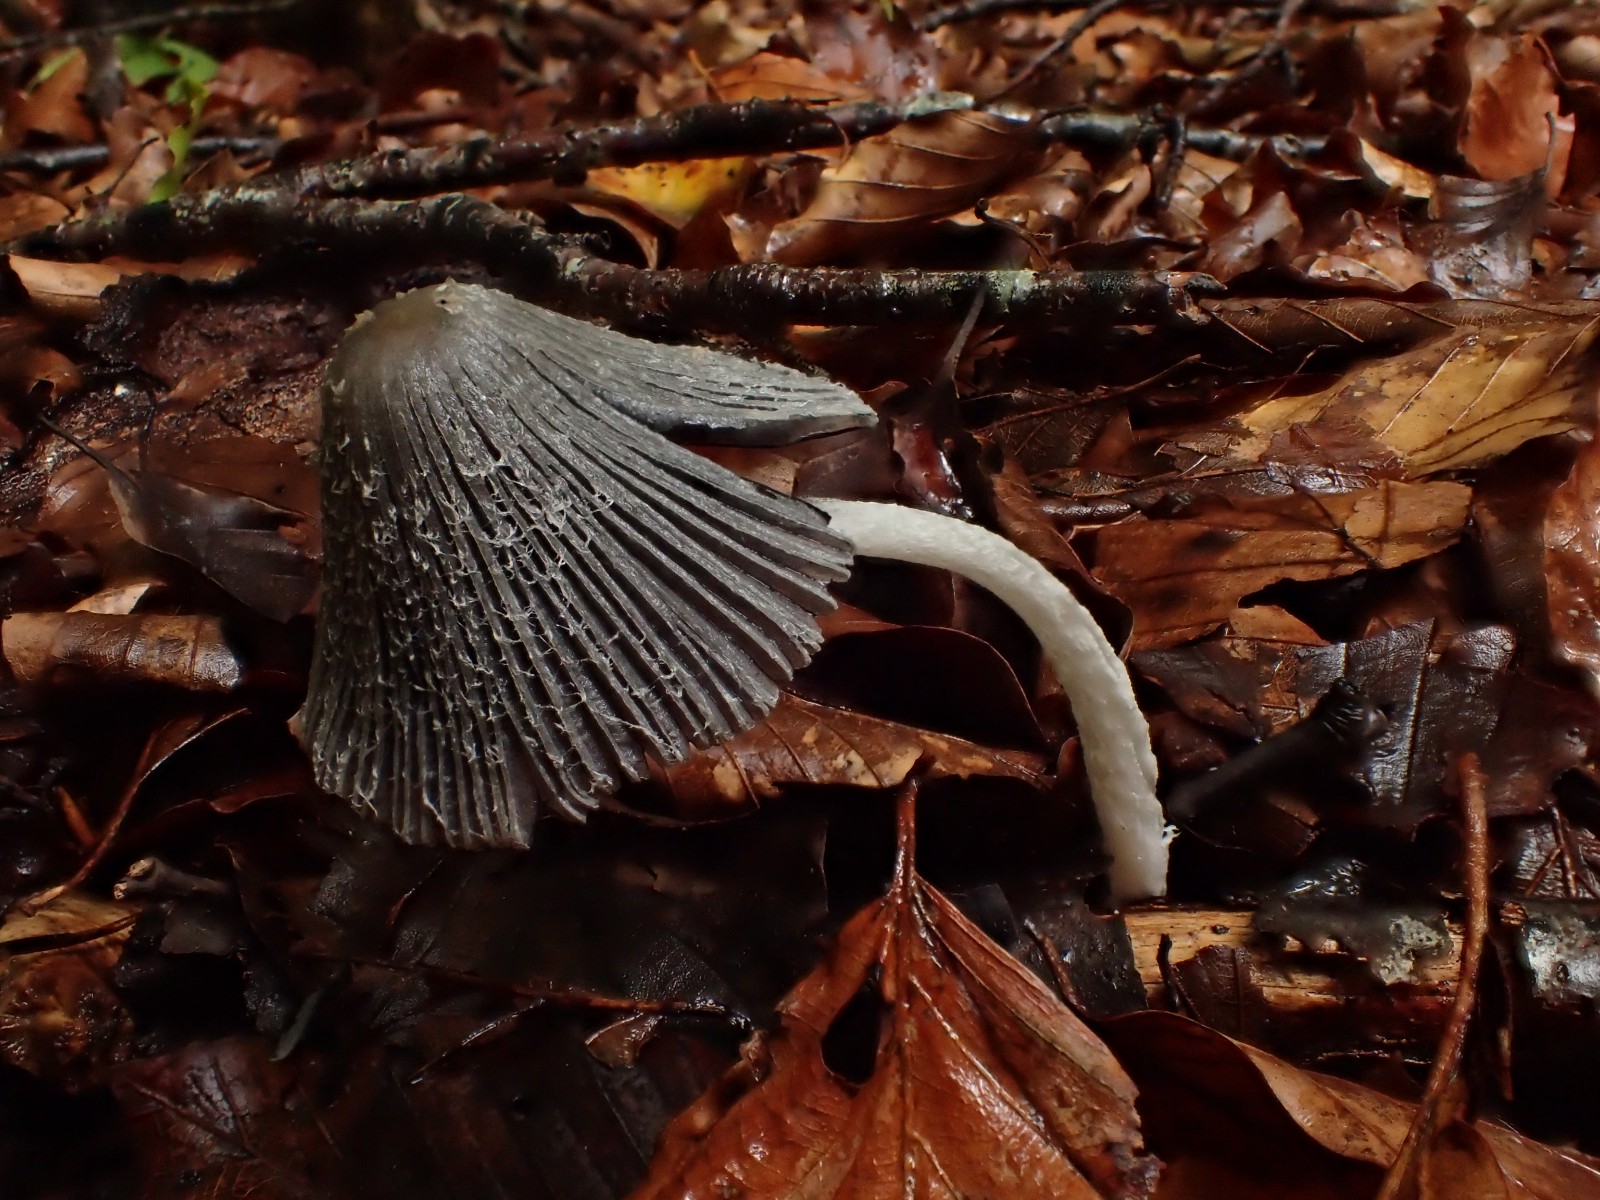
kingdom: Fungi
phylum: Basidiomycota
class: Agaricomycetes
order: Agaricales
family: Psathyrellaceae
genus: Coprinopsis
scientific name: Coprinopsis lagopus
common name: dunstokket blækhat
